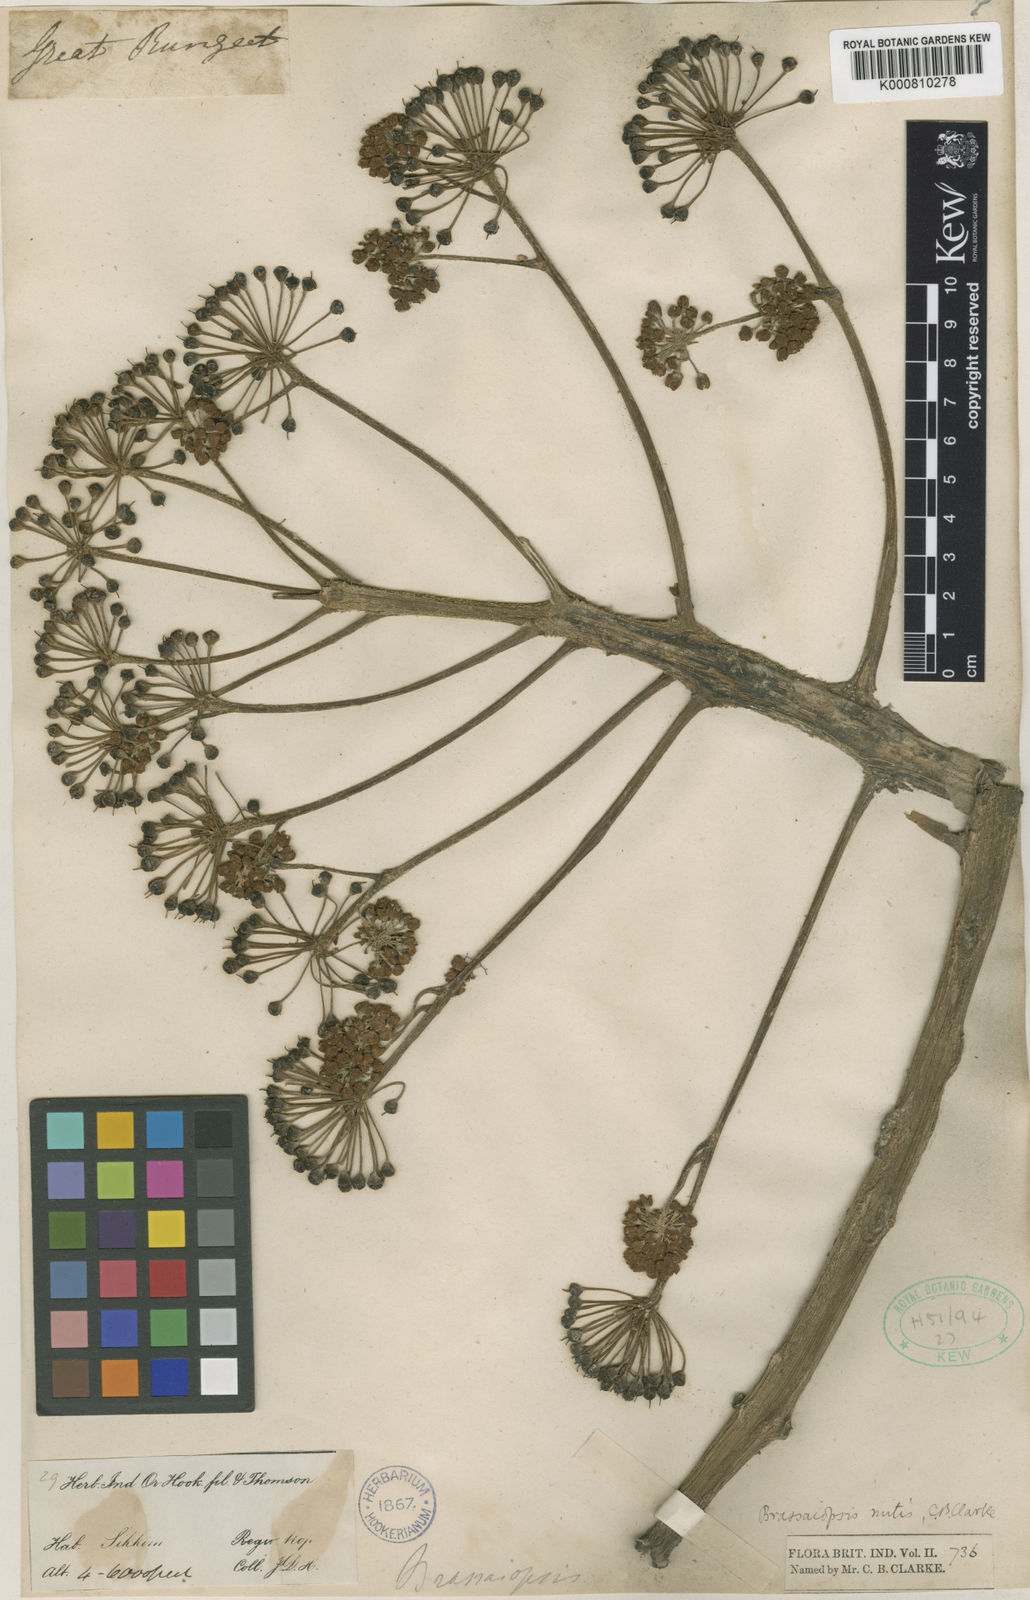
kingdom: Plantae
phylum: Tracheophyta
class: Magnoliopsida
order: Apiales
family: Araliaceae
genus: Brassaiopsis
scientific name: Brassaiopsis mitis
